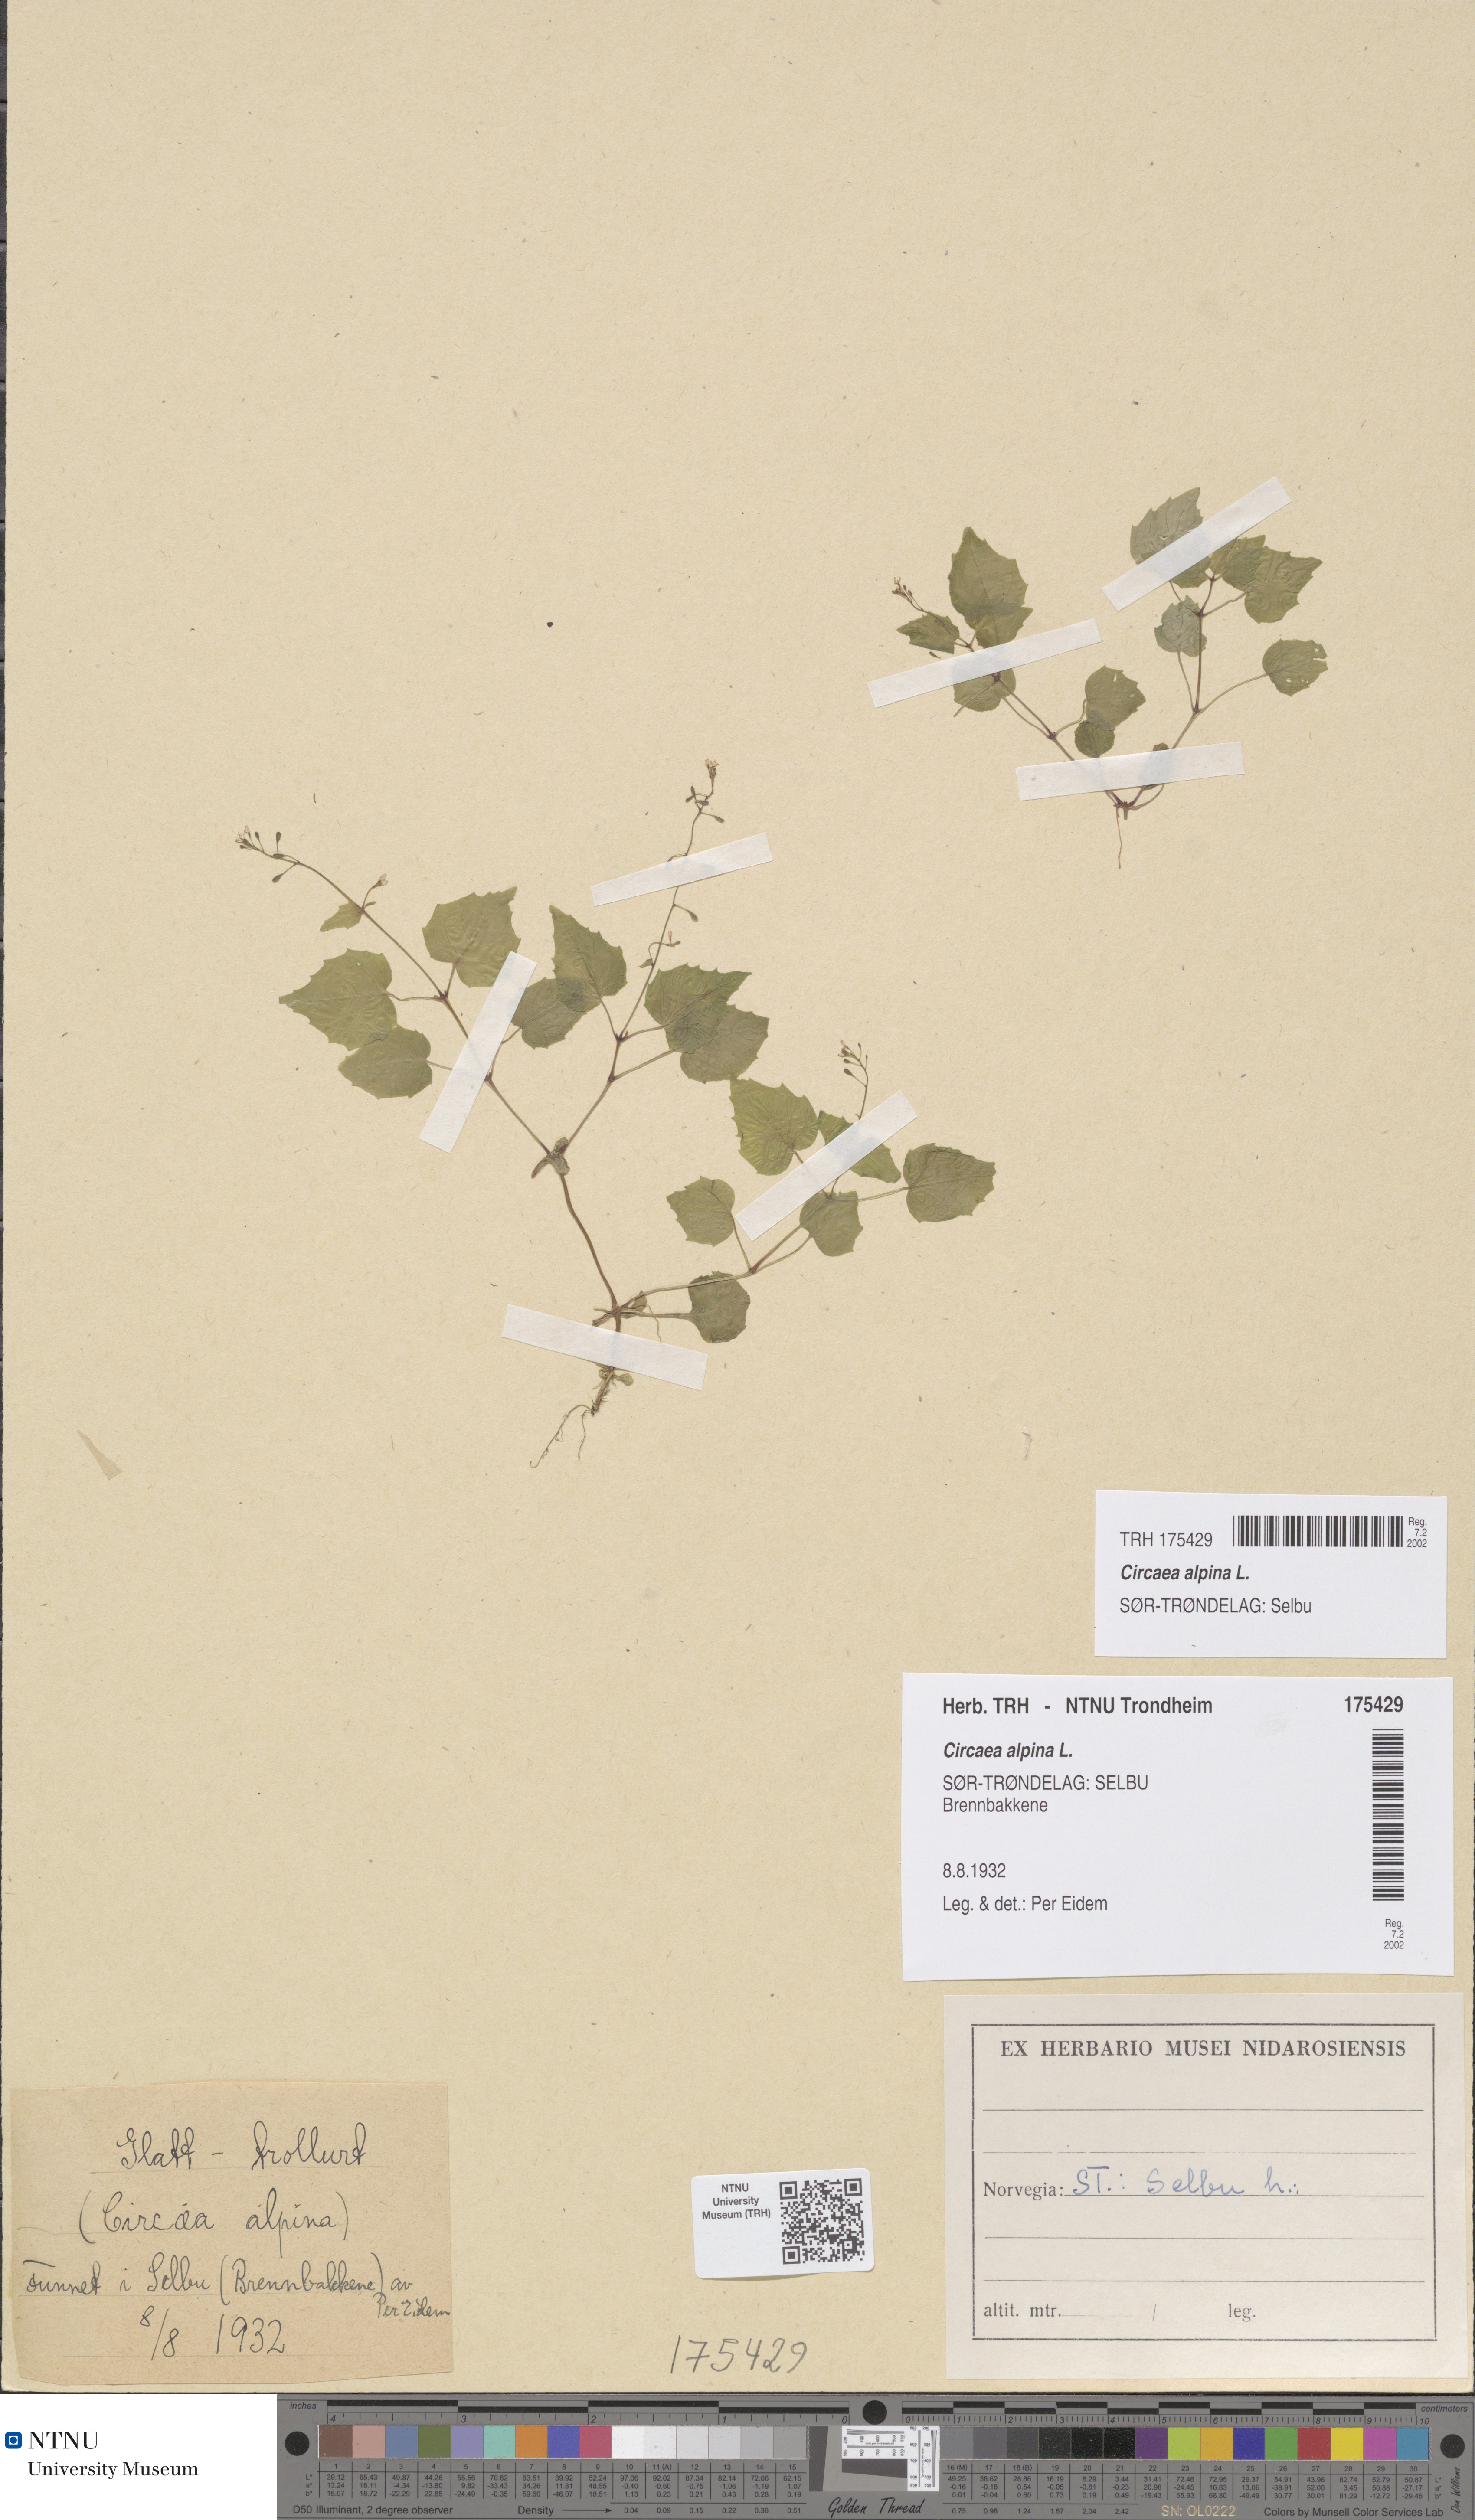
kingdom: Plantae
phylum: Tracheophyta
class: Magnoliopsida
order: Myrtales
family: Onagraceae
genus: Circaea
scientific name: Circaea alpina
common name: Alpine enchanter's-nightshade
